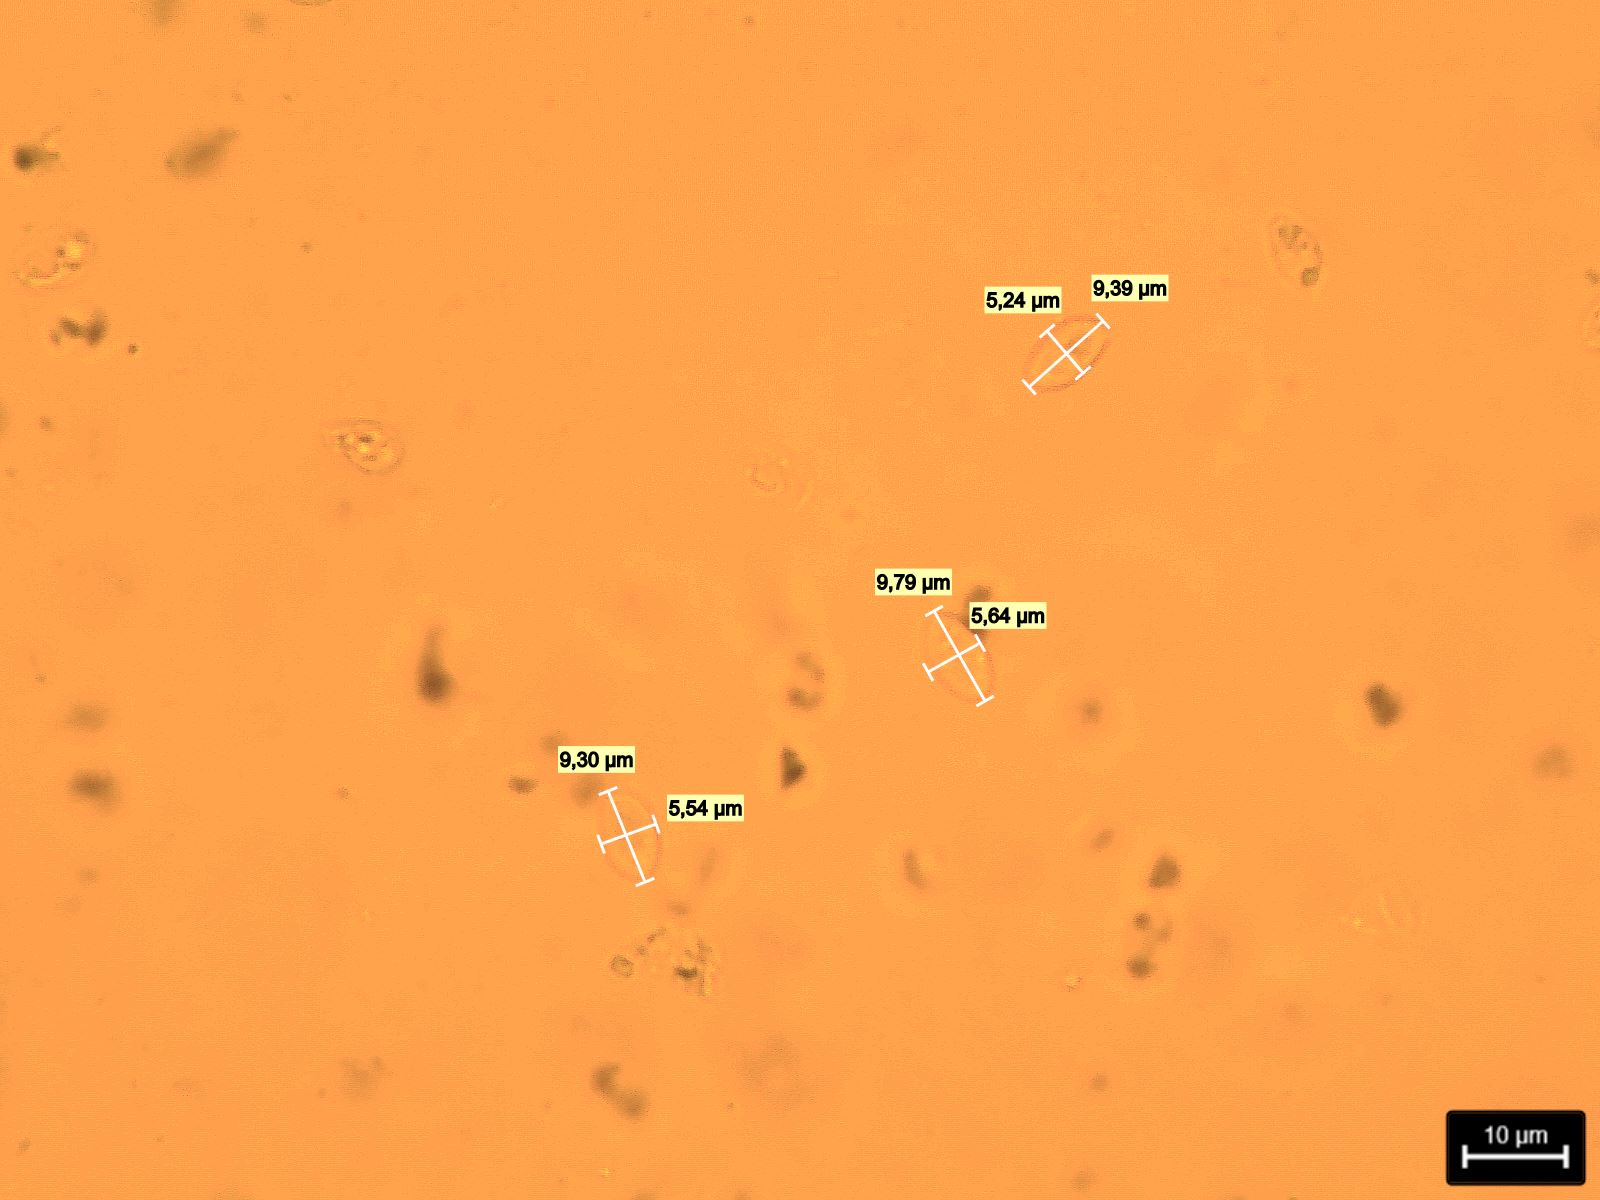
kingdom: Fungi
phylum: Basidiomycota
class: Agaricomycetes
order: Agaricales
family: Mycenaceae
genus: Mycena
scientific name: Mycena
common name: huesvamp
